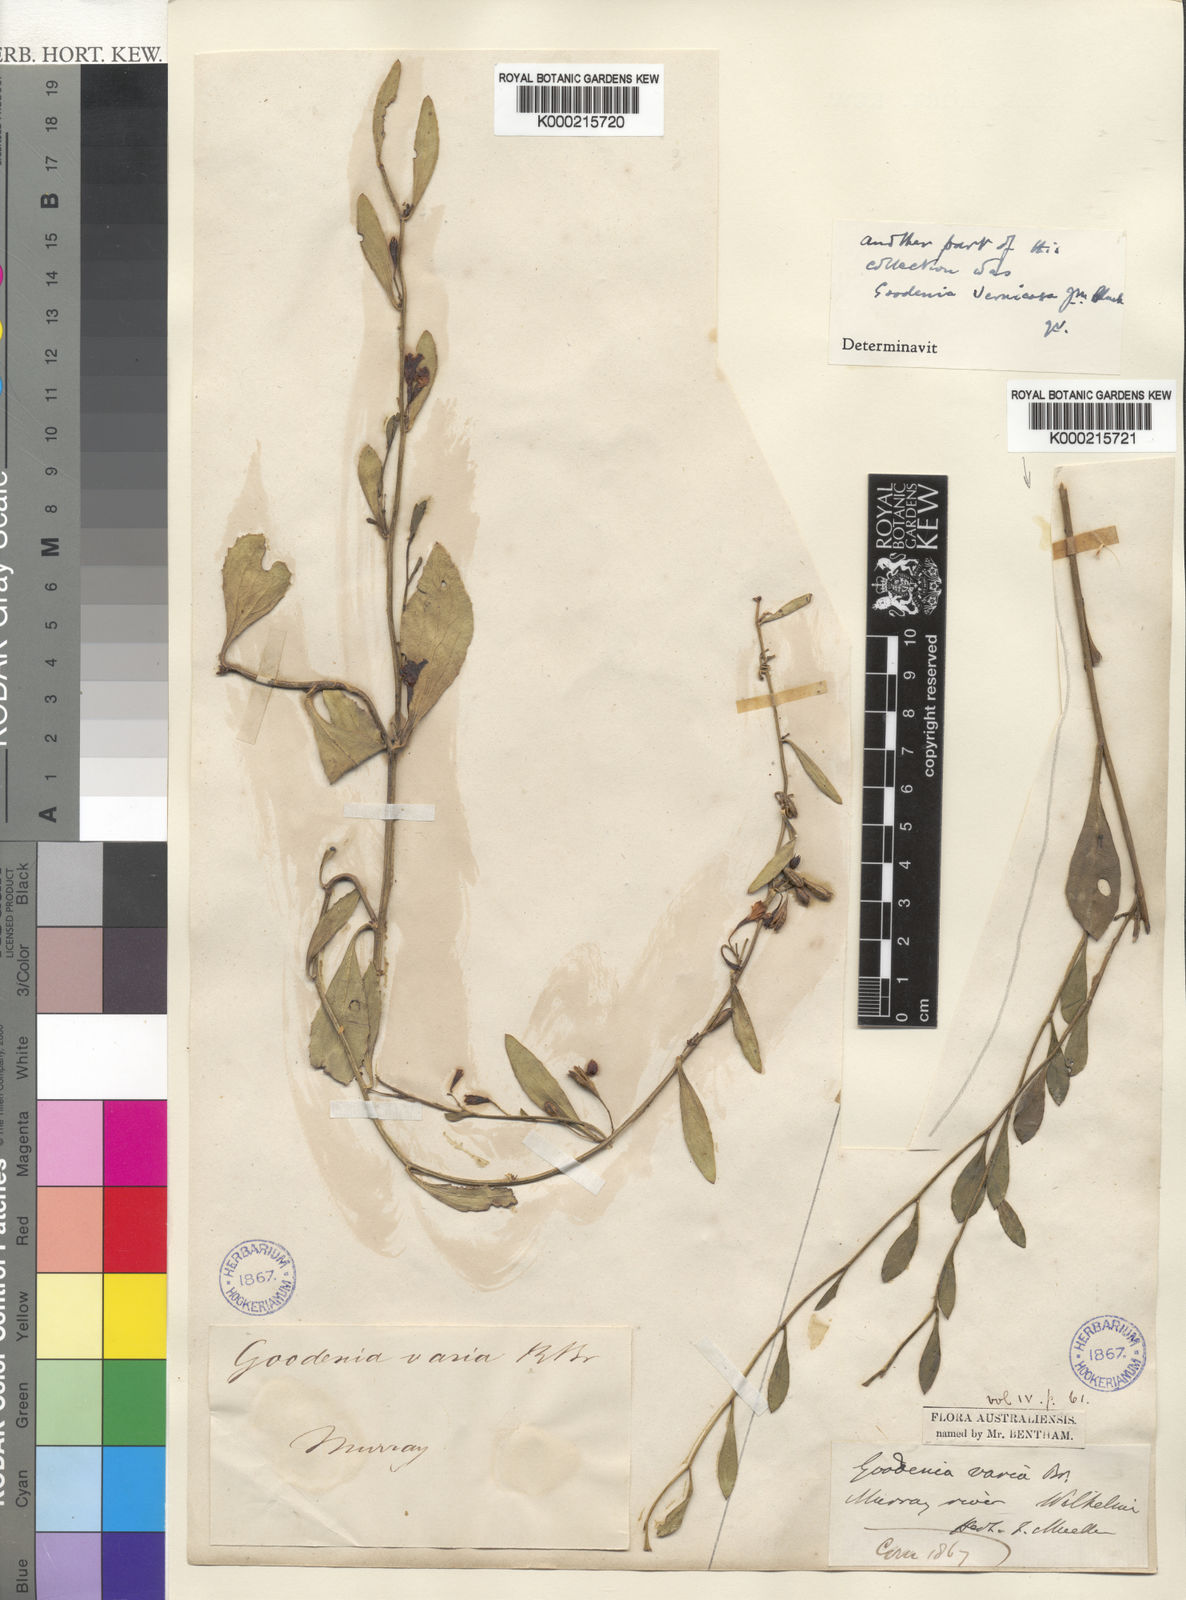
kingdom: Plantae
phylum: Tracheophyta
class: Magnoliopsida
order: Asterales
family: Goodeniaceae
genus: Goodenia
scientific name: Goodenia varia
